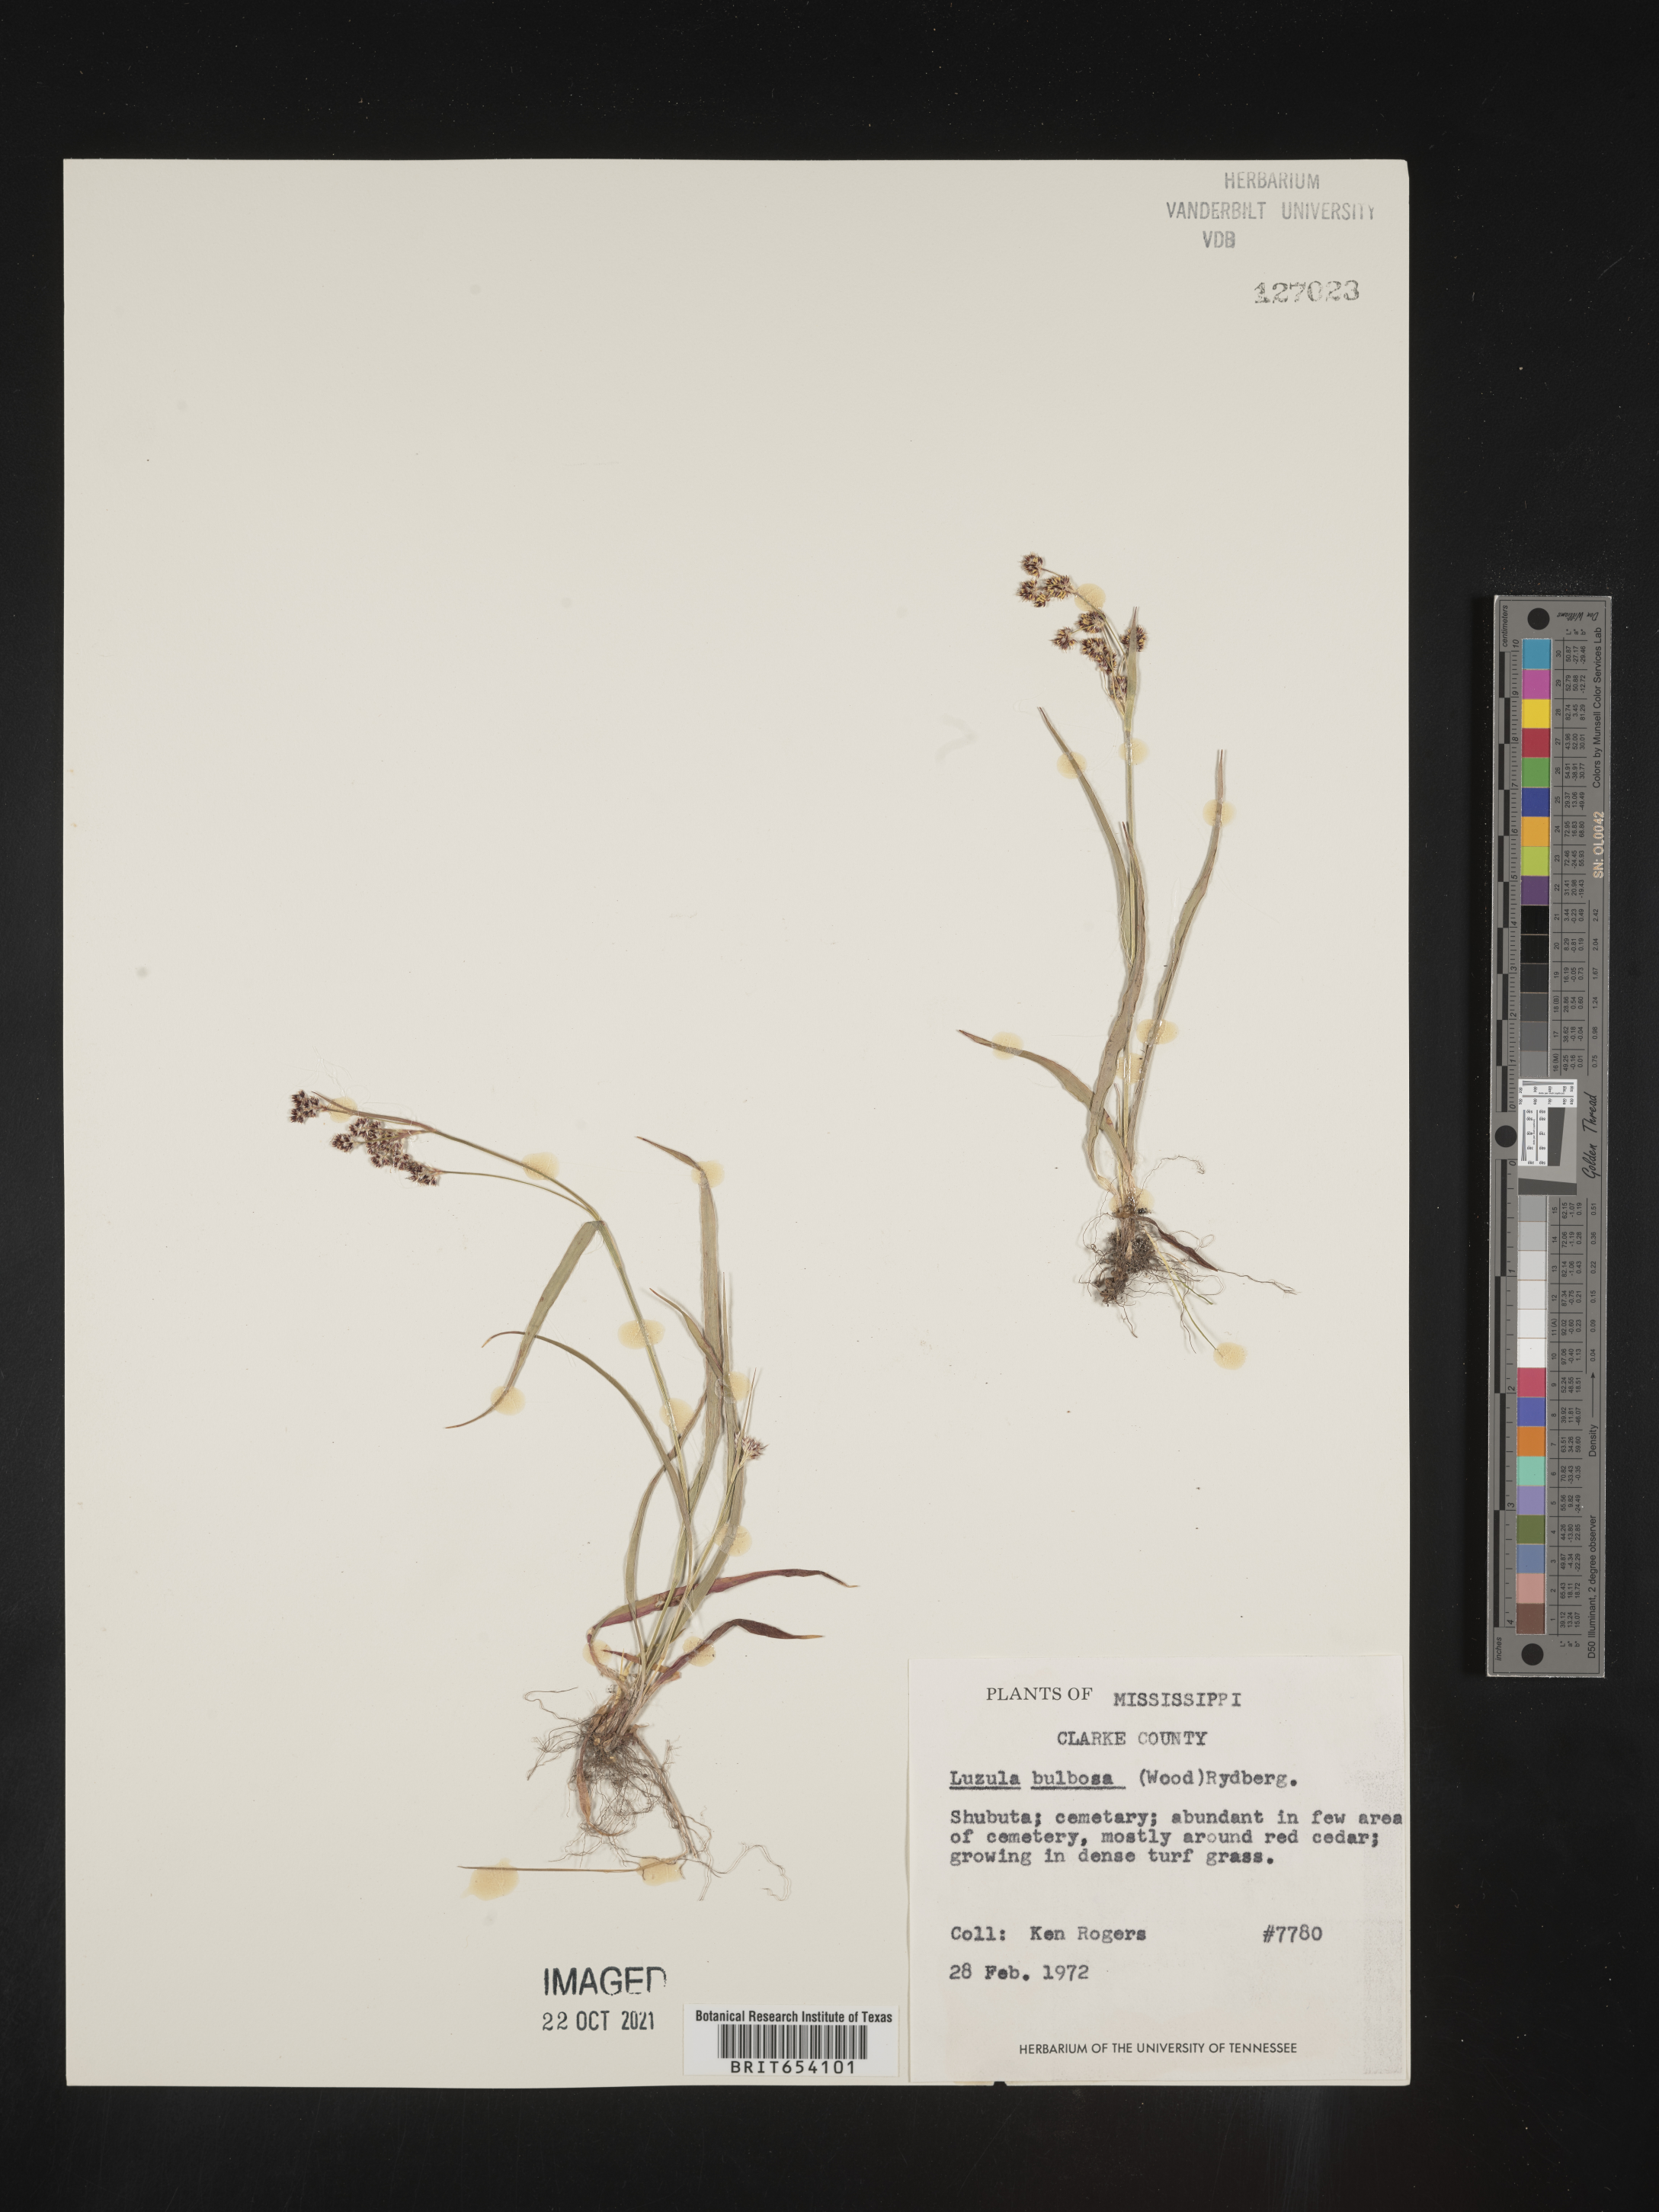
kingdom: Plantae
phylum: Tracheophyta
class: Liliopsida
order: Poales
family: Juncaceae
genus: Luzula
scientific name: Luzula bulbosa
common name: Bulbous woodrush
